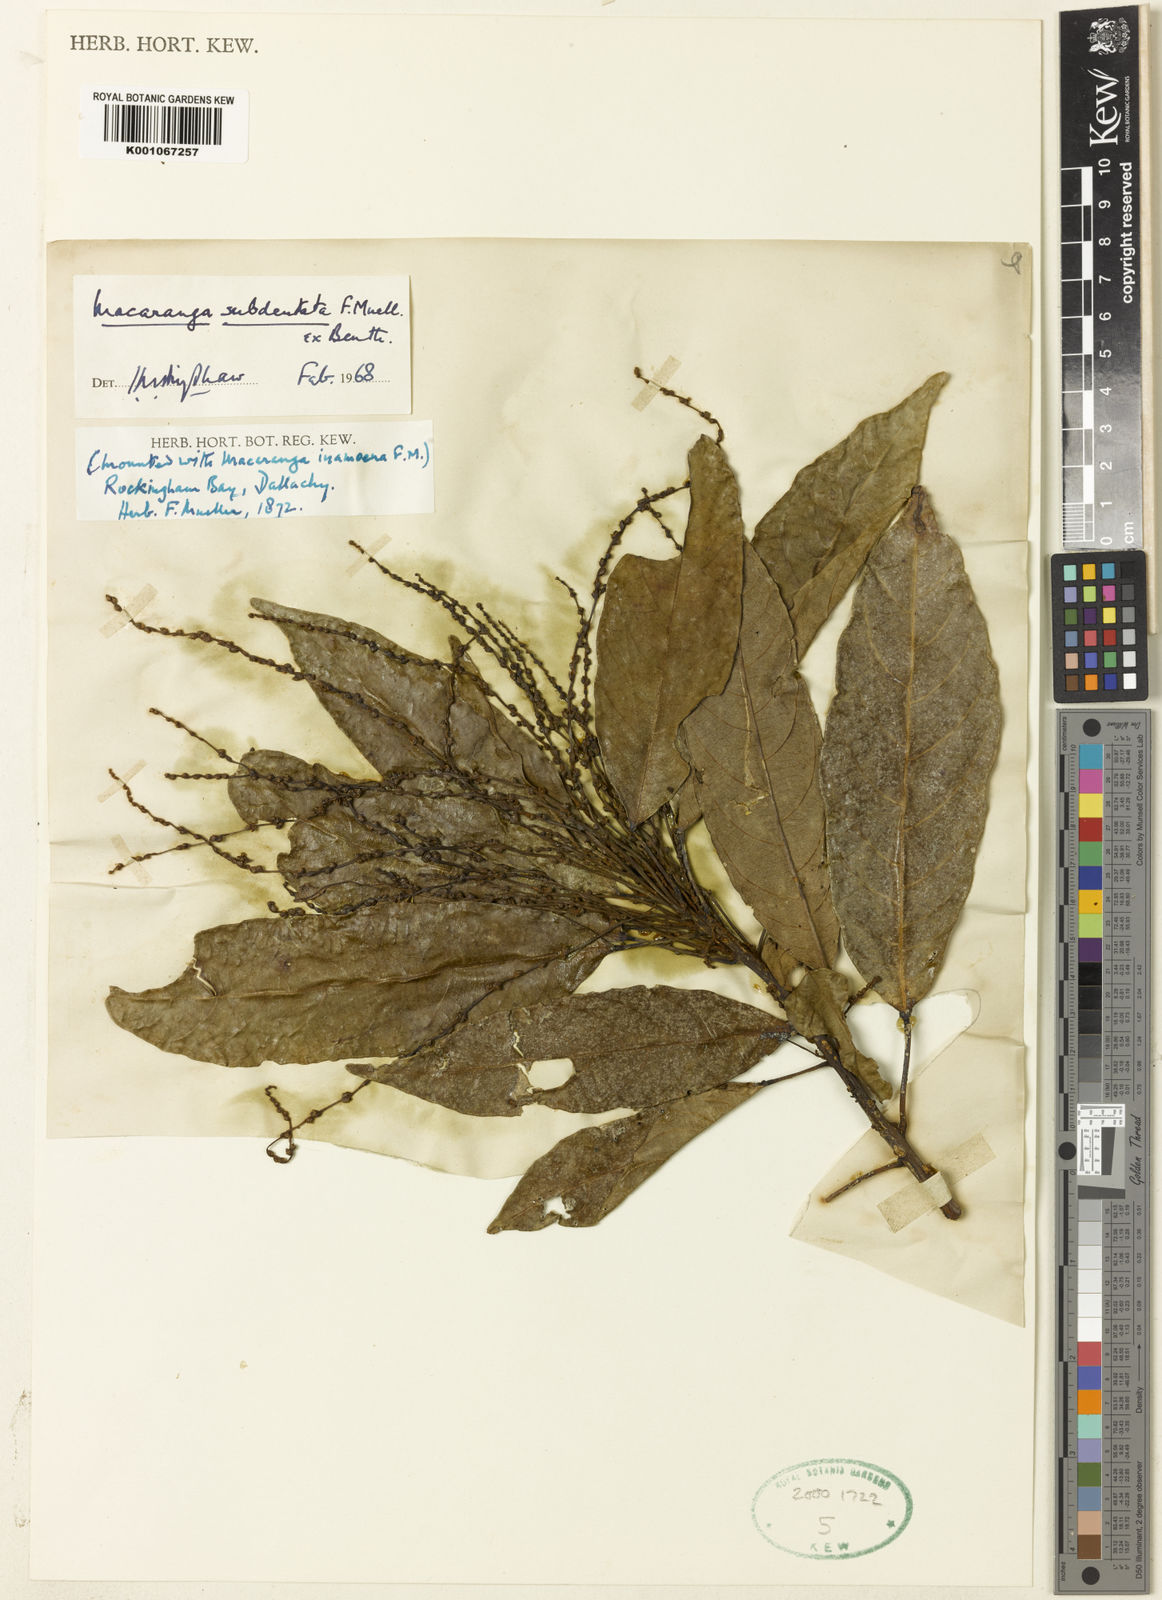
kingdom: Plantae
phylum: Tracheophyta
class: Magnoliopsida
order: Malpighiales
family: Euphorbiaceae
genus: Macaranga
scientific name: Macaranga subdentata
